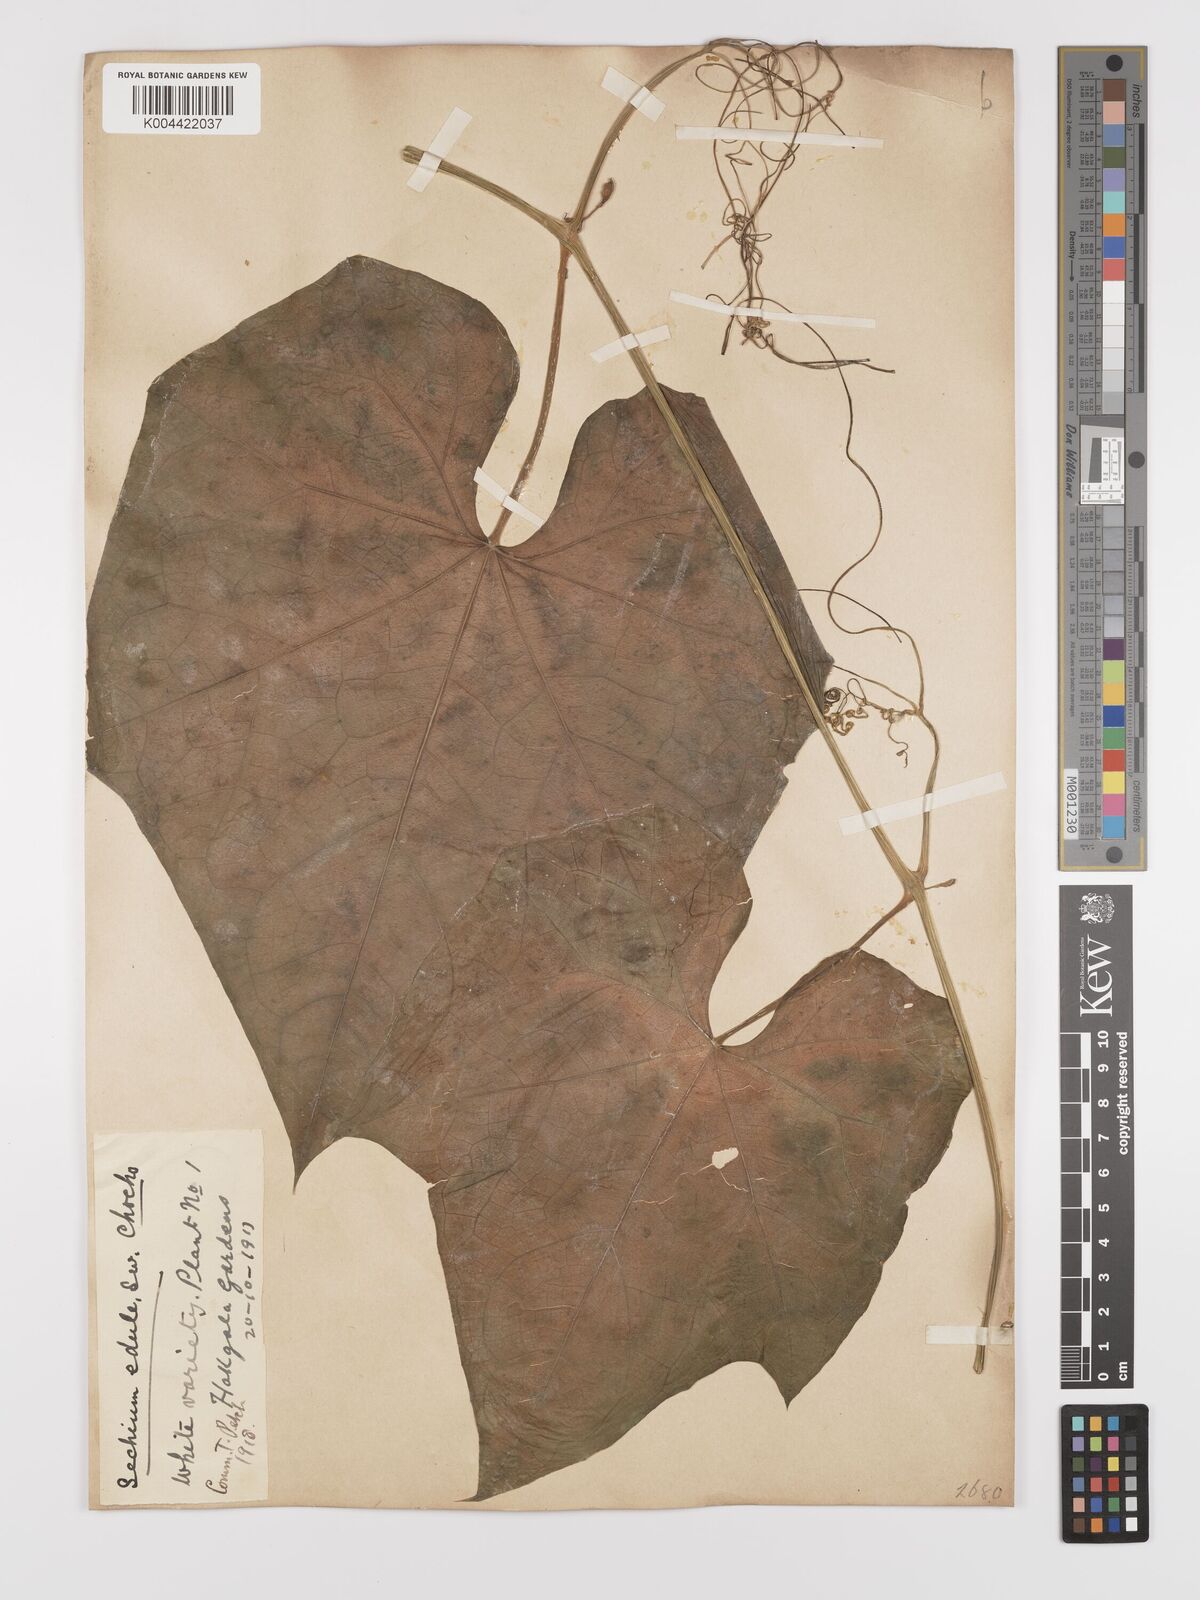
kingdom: Plantae
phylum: Tracheophyta
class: Magnoliopsida
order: Cucurbitales
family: Cucurbitaceae
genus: Sechium
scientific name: Sechium edule
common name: Chayote
